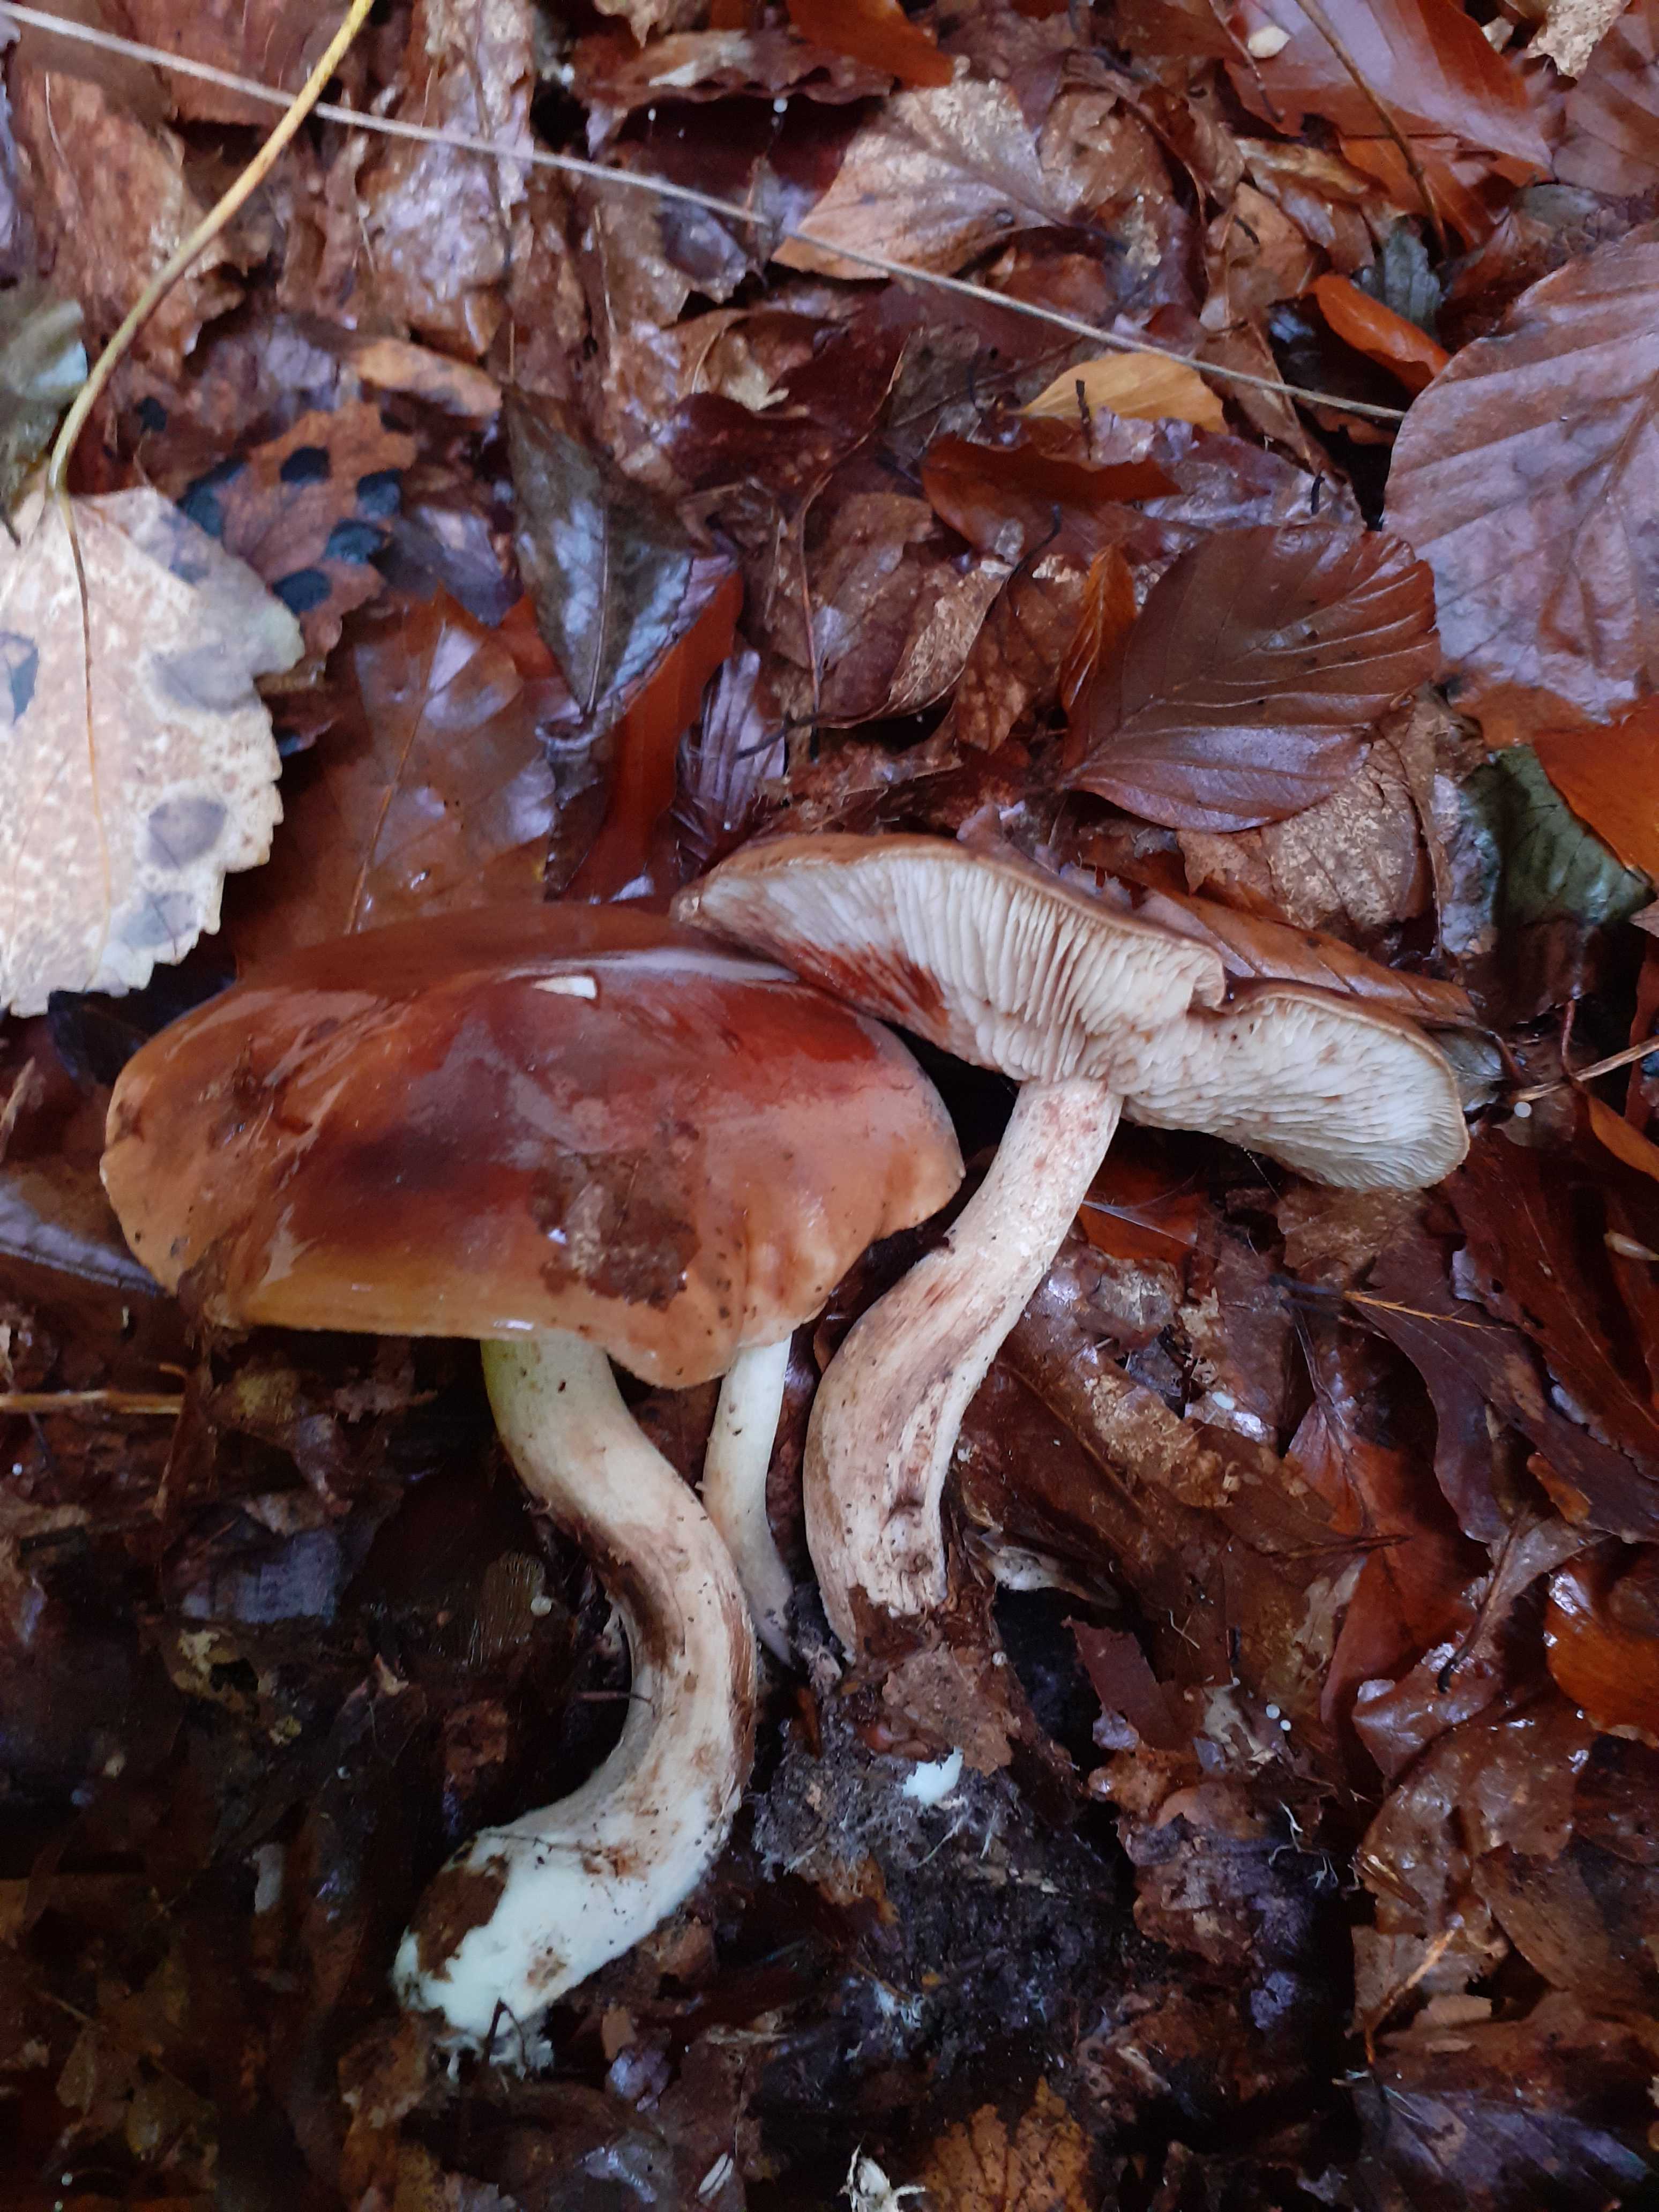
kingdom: Fungi
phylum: Basidiomycota
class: Agaricomycetes
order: Agaricales
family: Tricholomataceae
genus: Tricholoma
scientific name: Tricholoma ustale
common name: sveden ridderhat
